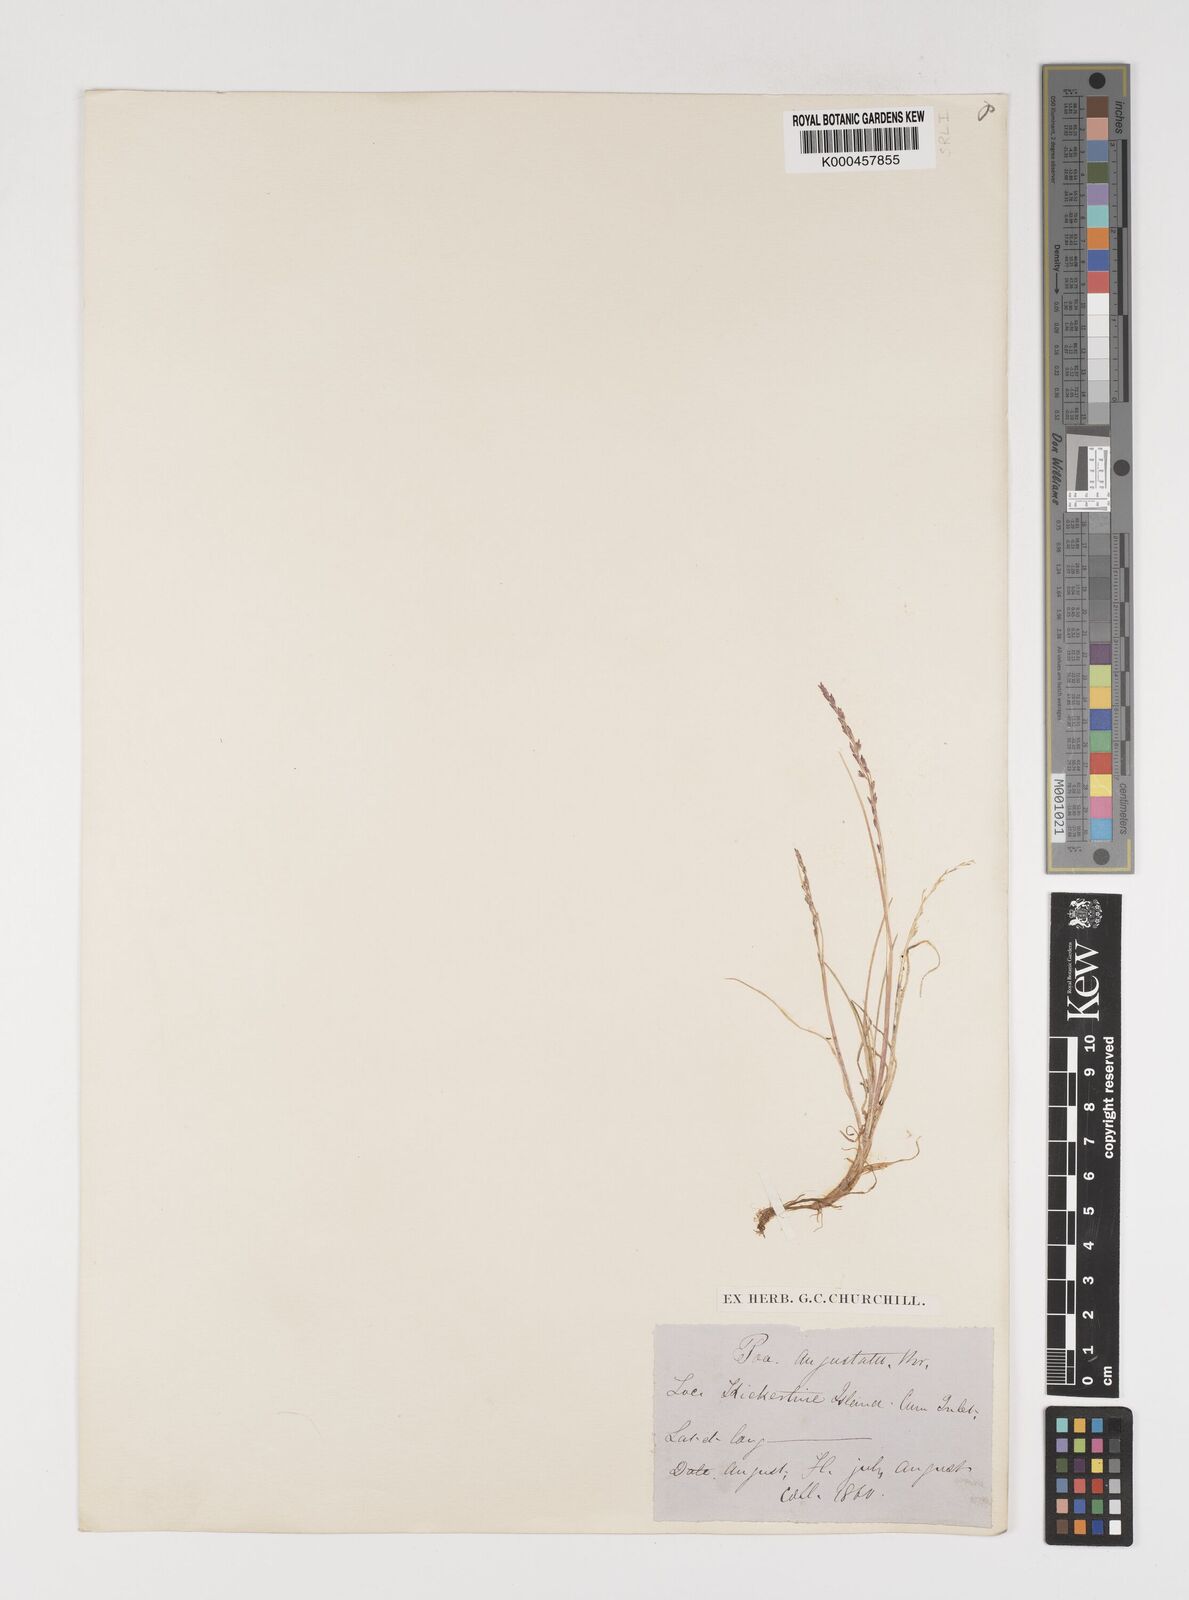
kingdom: Plantae
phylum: Tracheophyta
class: Liliopsida
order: Poales
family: Poaceae
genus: Puccinellia
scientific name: Puccinellia angustata
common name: Narrow alkaligrass
